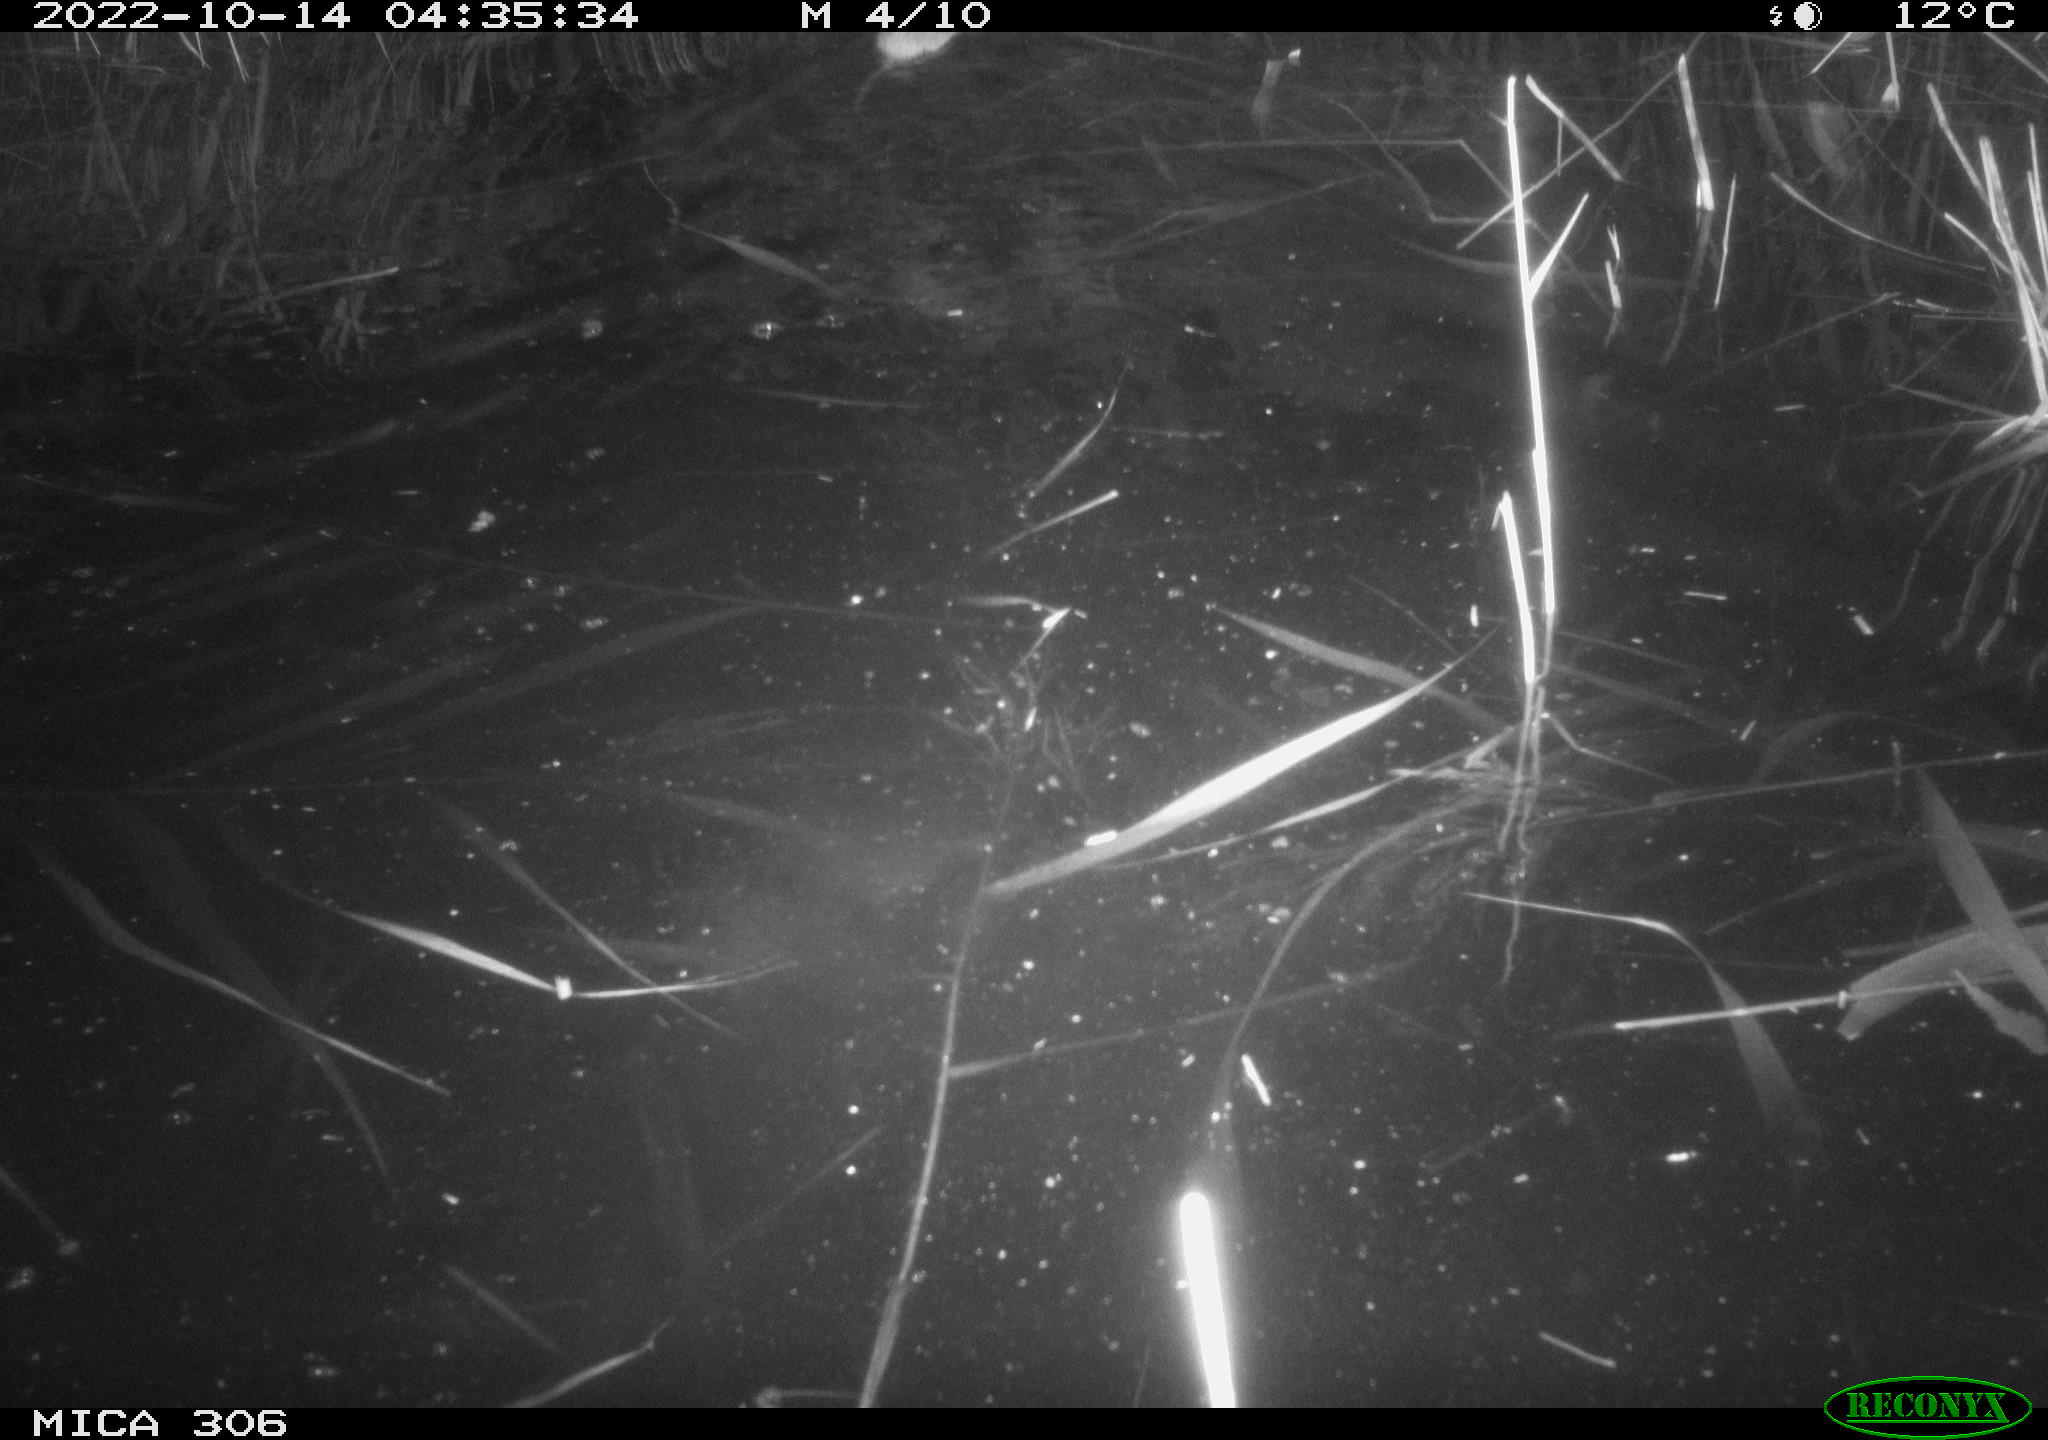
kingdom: Animalia
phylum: Chordata
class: Mammalia
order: Rodentia
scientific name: Rodentia
